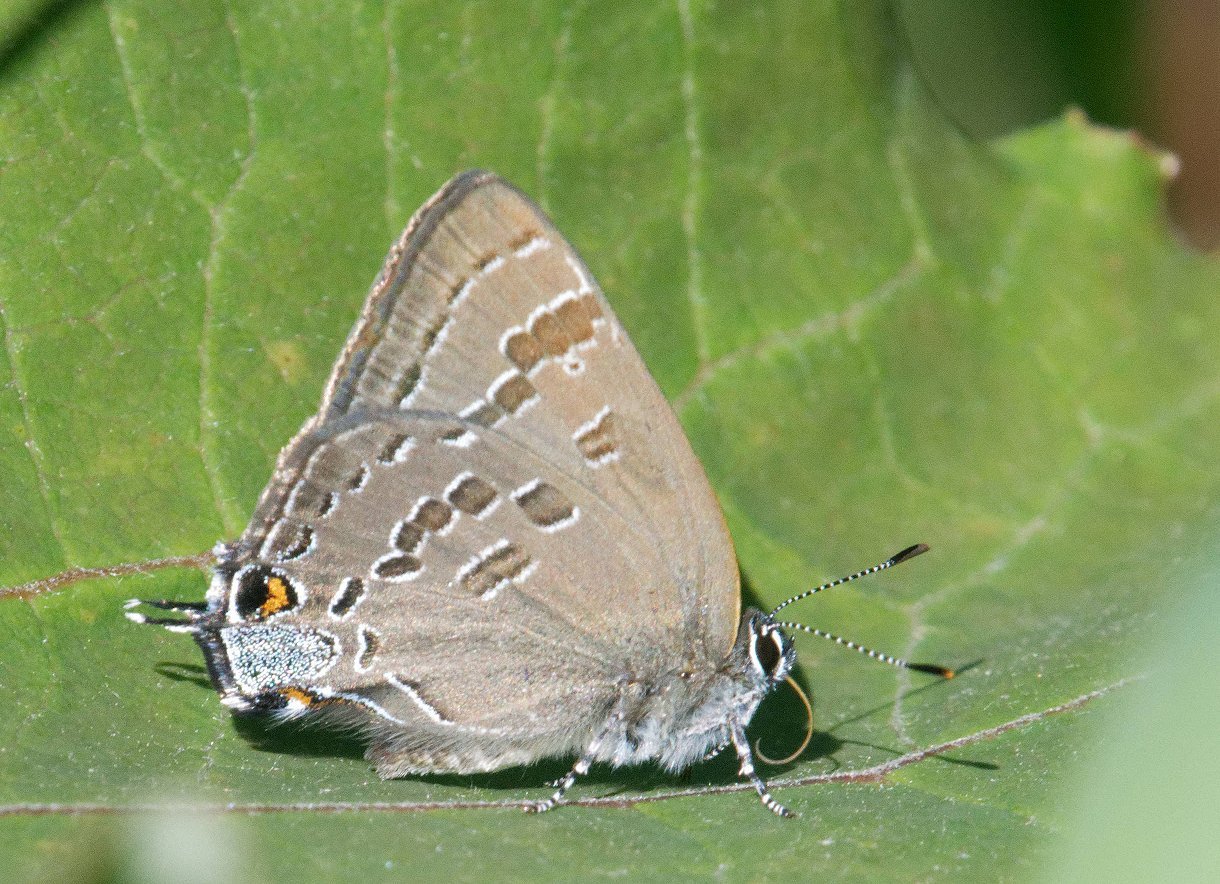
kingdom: Animalia
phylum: Arthropoda
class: Insecta
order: Lepidoptera
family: Lycaenidae
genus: Strymon
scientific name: Strymon caryaevorus
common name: Hickory Hairstreak
